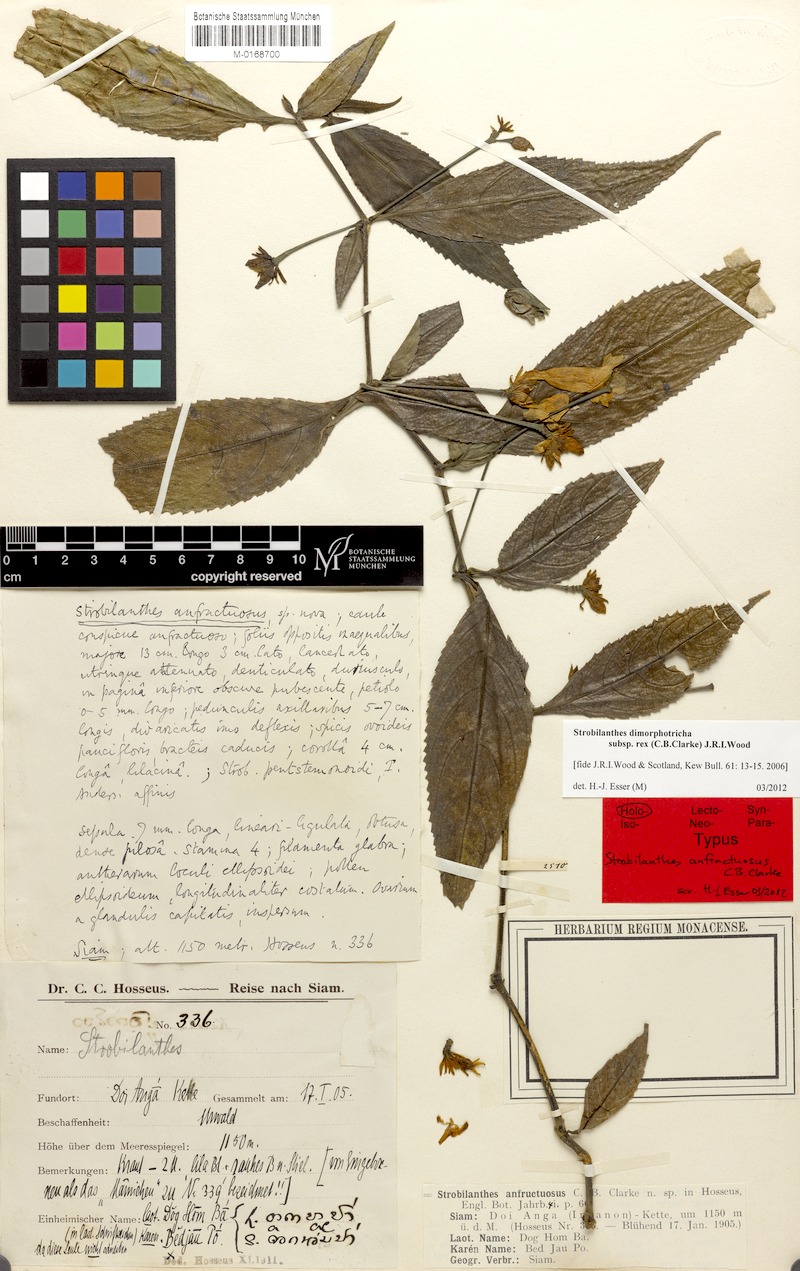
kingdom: Plantae
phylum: Tracheophyta
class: Magnoliopsida
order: Lamiales
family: Acanthaceae
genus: Strobilanthes
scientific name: Strobilanthes dimorphotricha
